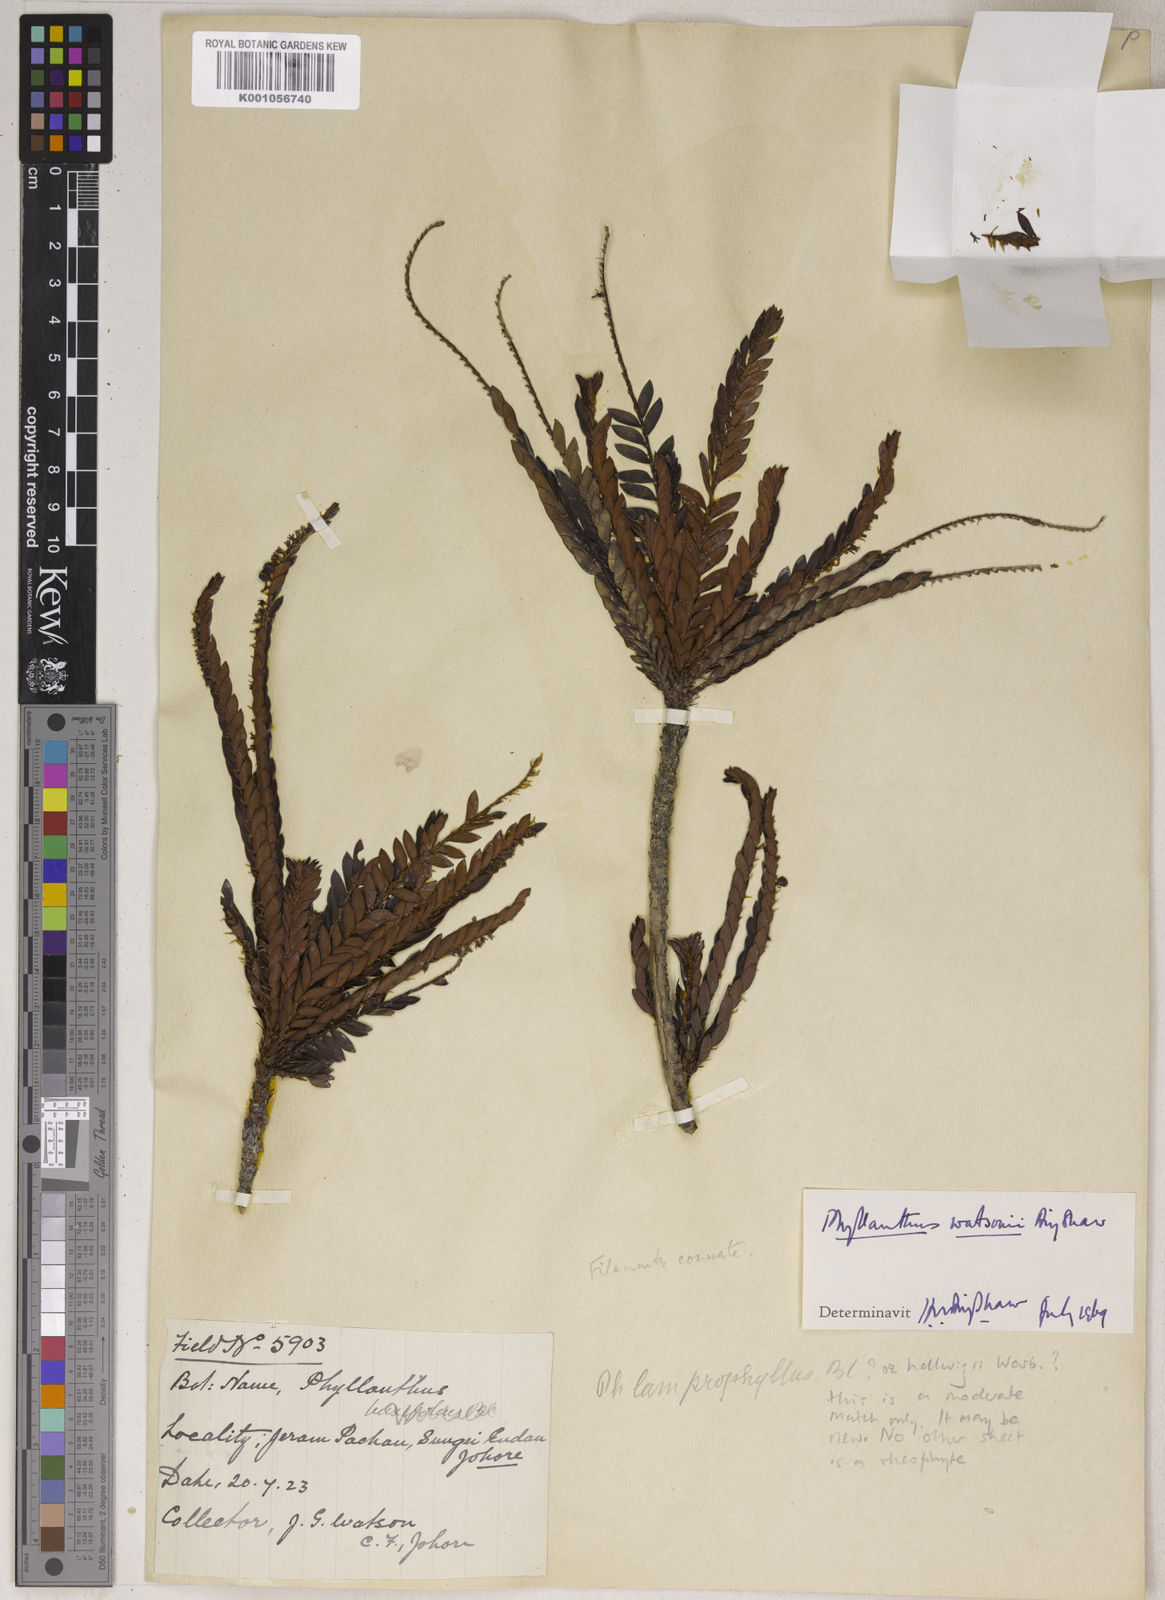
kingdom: Plantae
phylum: Tracheophyta
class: Magnoliopsida
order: Malpighiales
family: Phyllanthaceae
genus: Phyllanthus
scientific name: Phyllanthus watsonii
